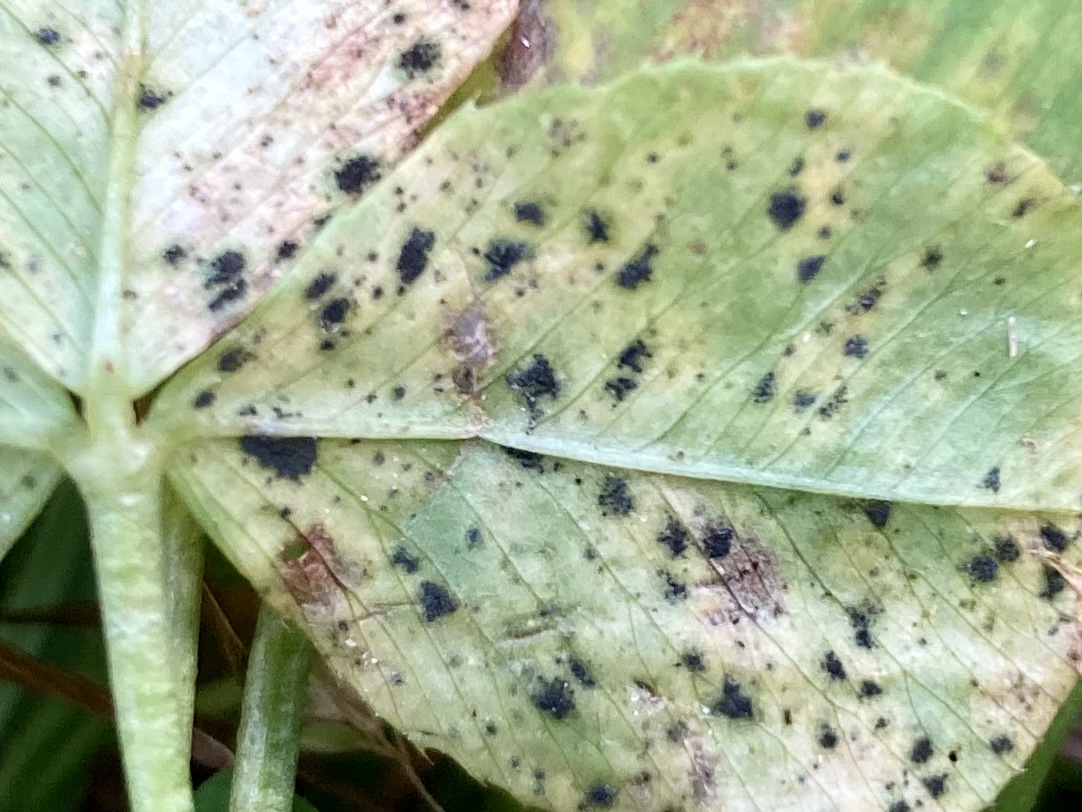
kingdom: Fungi
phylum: Ascomycota
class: Dothideomycetes
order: Mycosphaerellales
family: Mycosphaerellaceae
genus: Polythrincium
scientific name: Polythrincium trifolii
